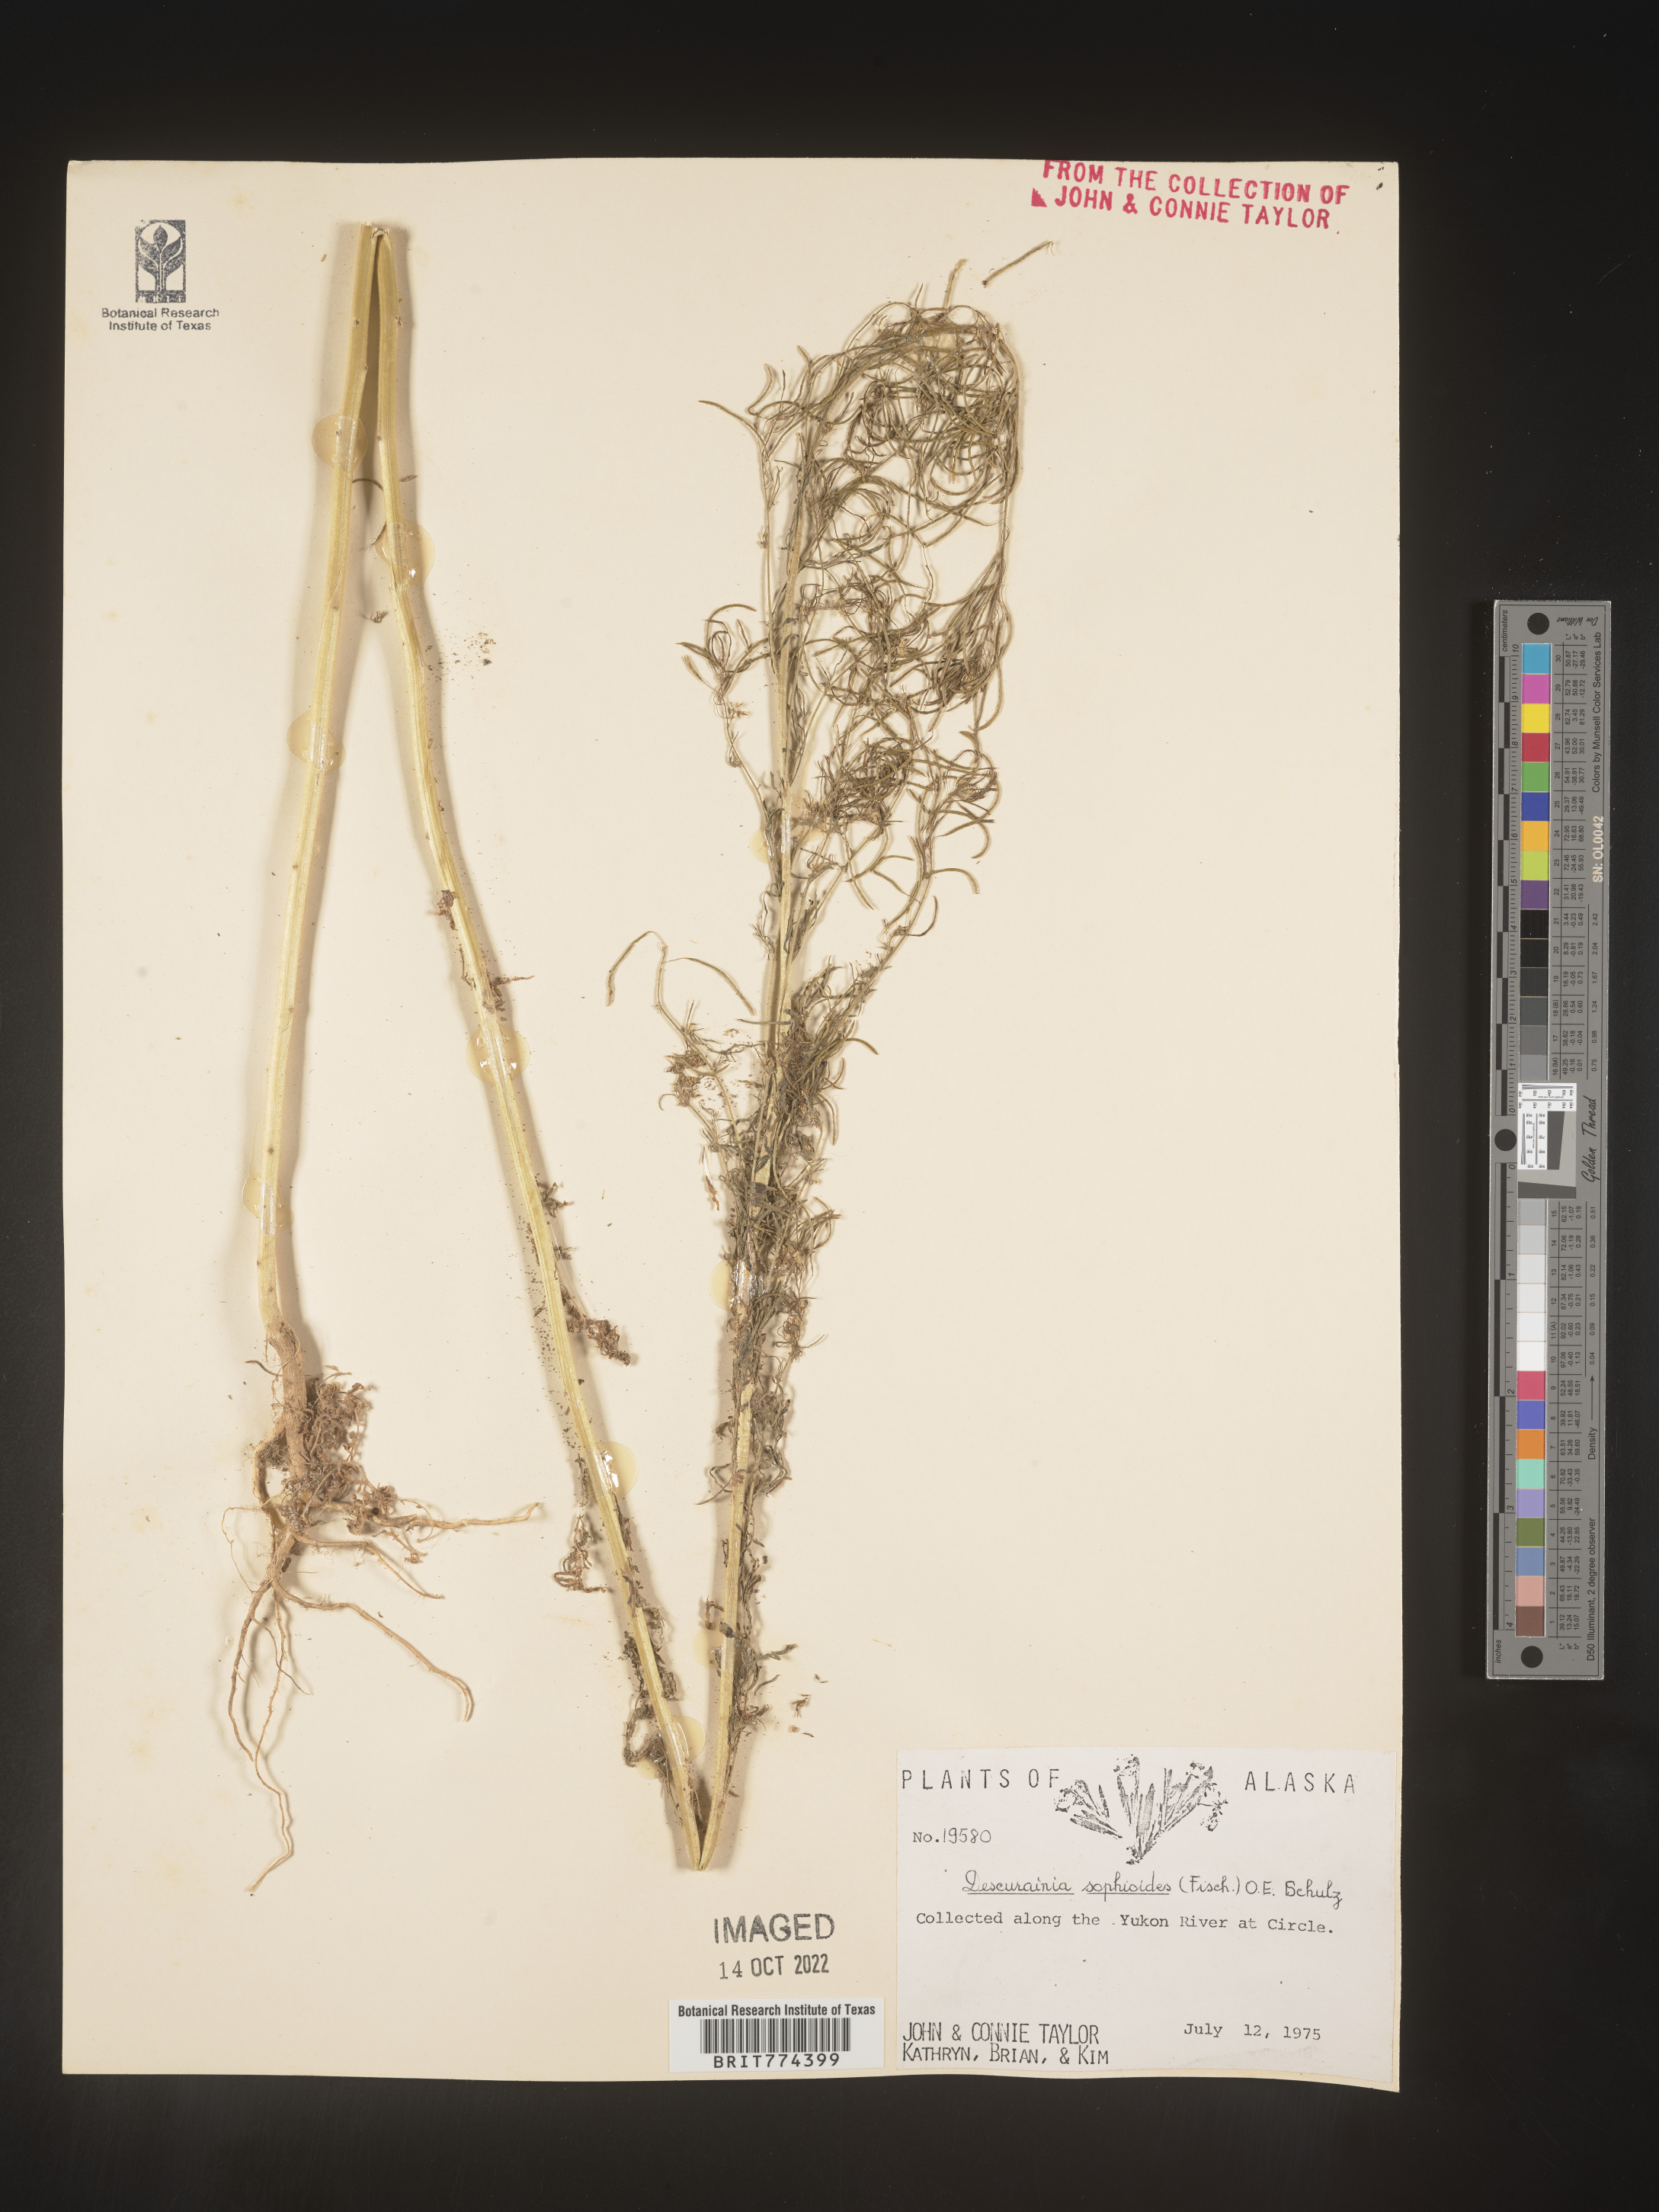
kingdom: Plantae
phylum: Tracheophyta
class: Magnoliopsida
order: Brassicales
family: Brassicaceae
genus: Descurainia
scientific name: Descurainia
